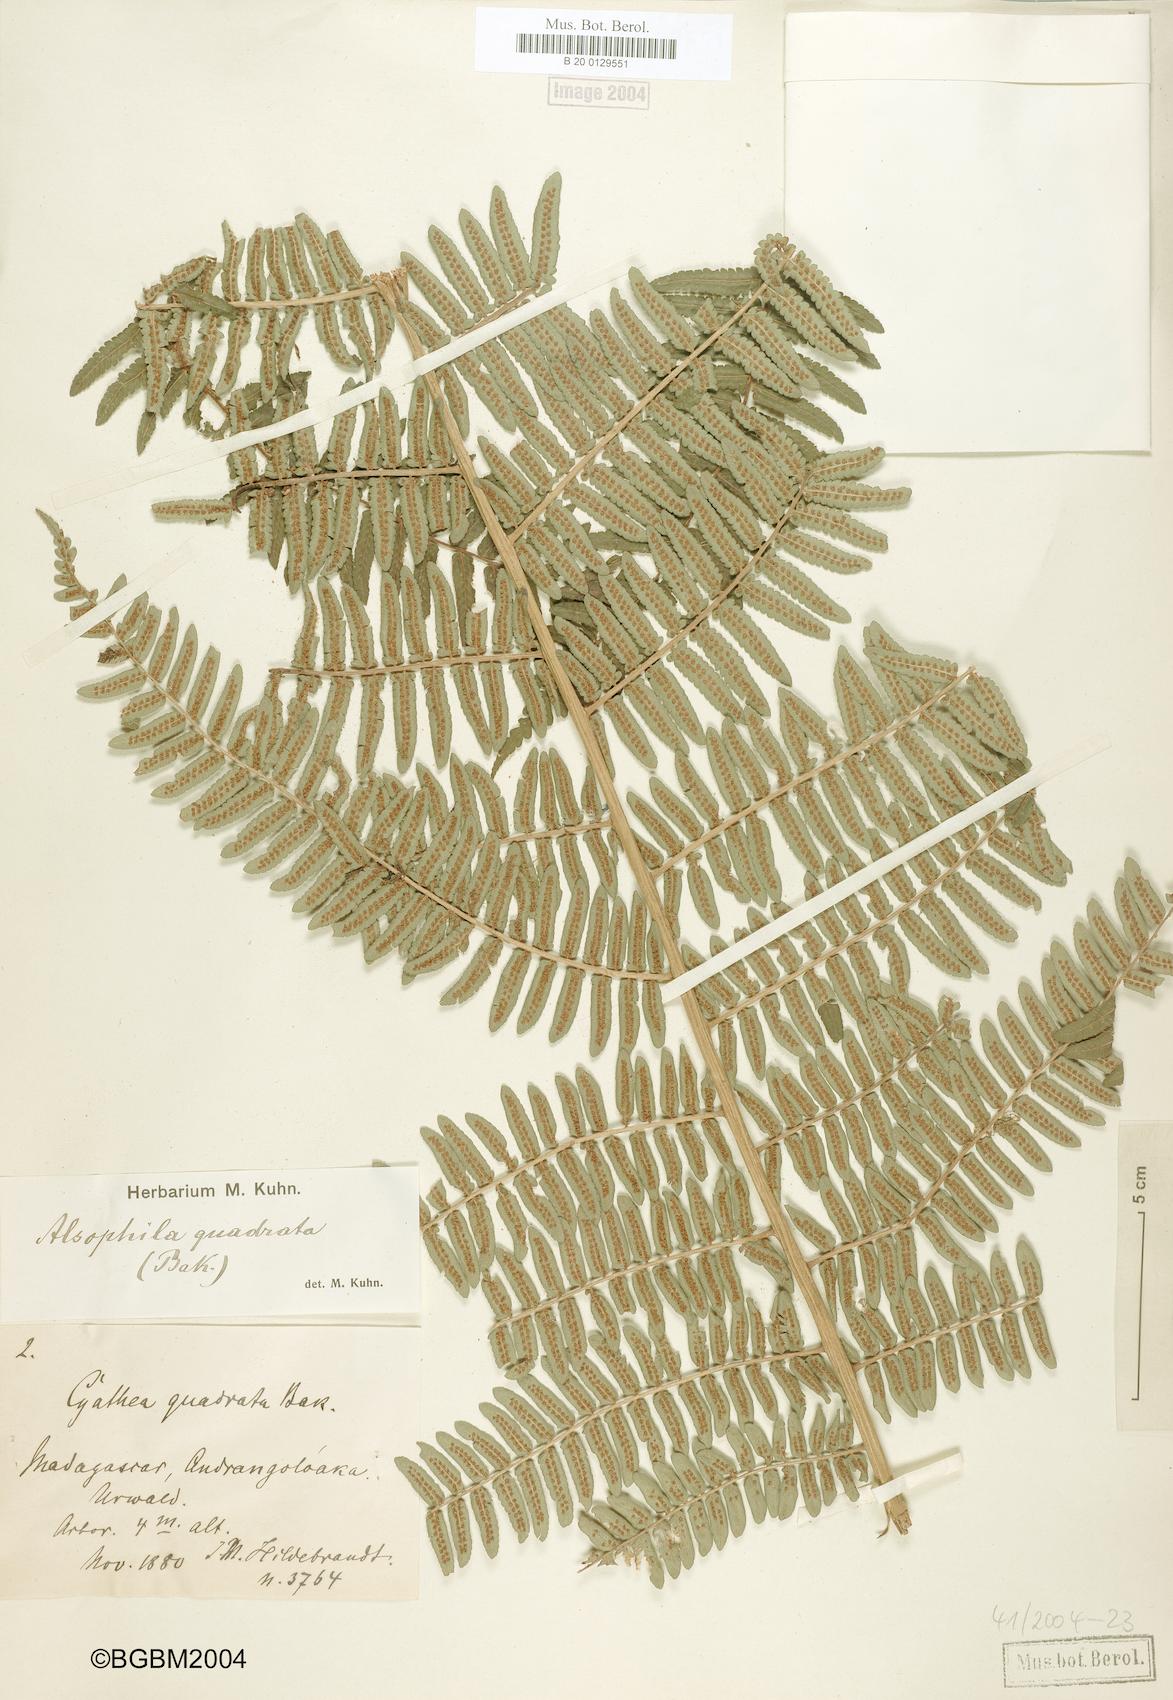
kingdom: Plantae
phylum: Tracheophyta
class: Polypodiopsida
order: Cyatheales
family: Cyatheaceae
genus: Alsophila
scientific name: Alsophila quadrata
